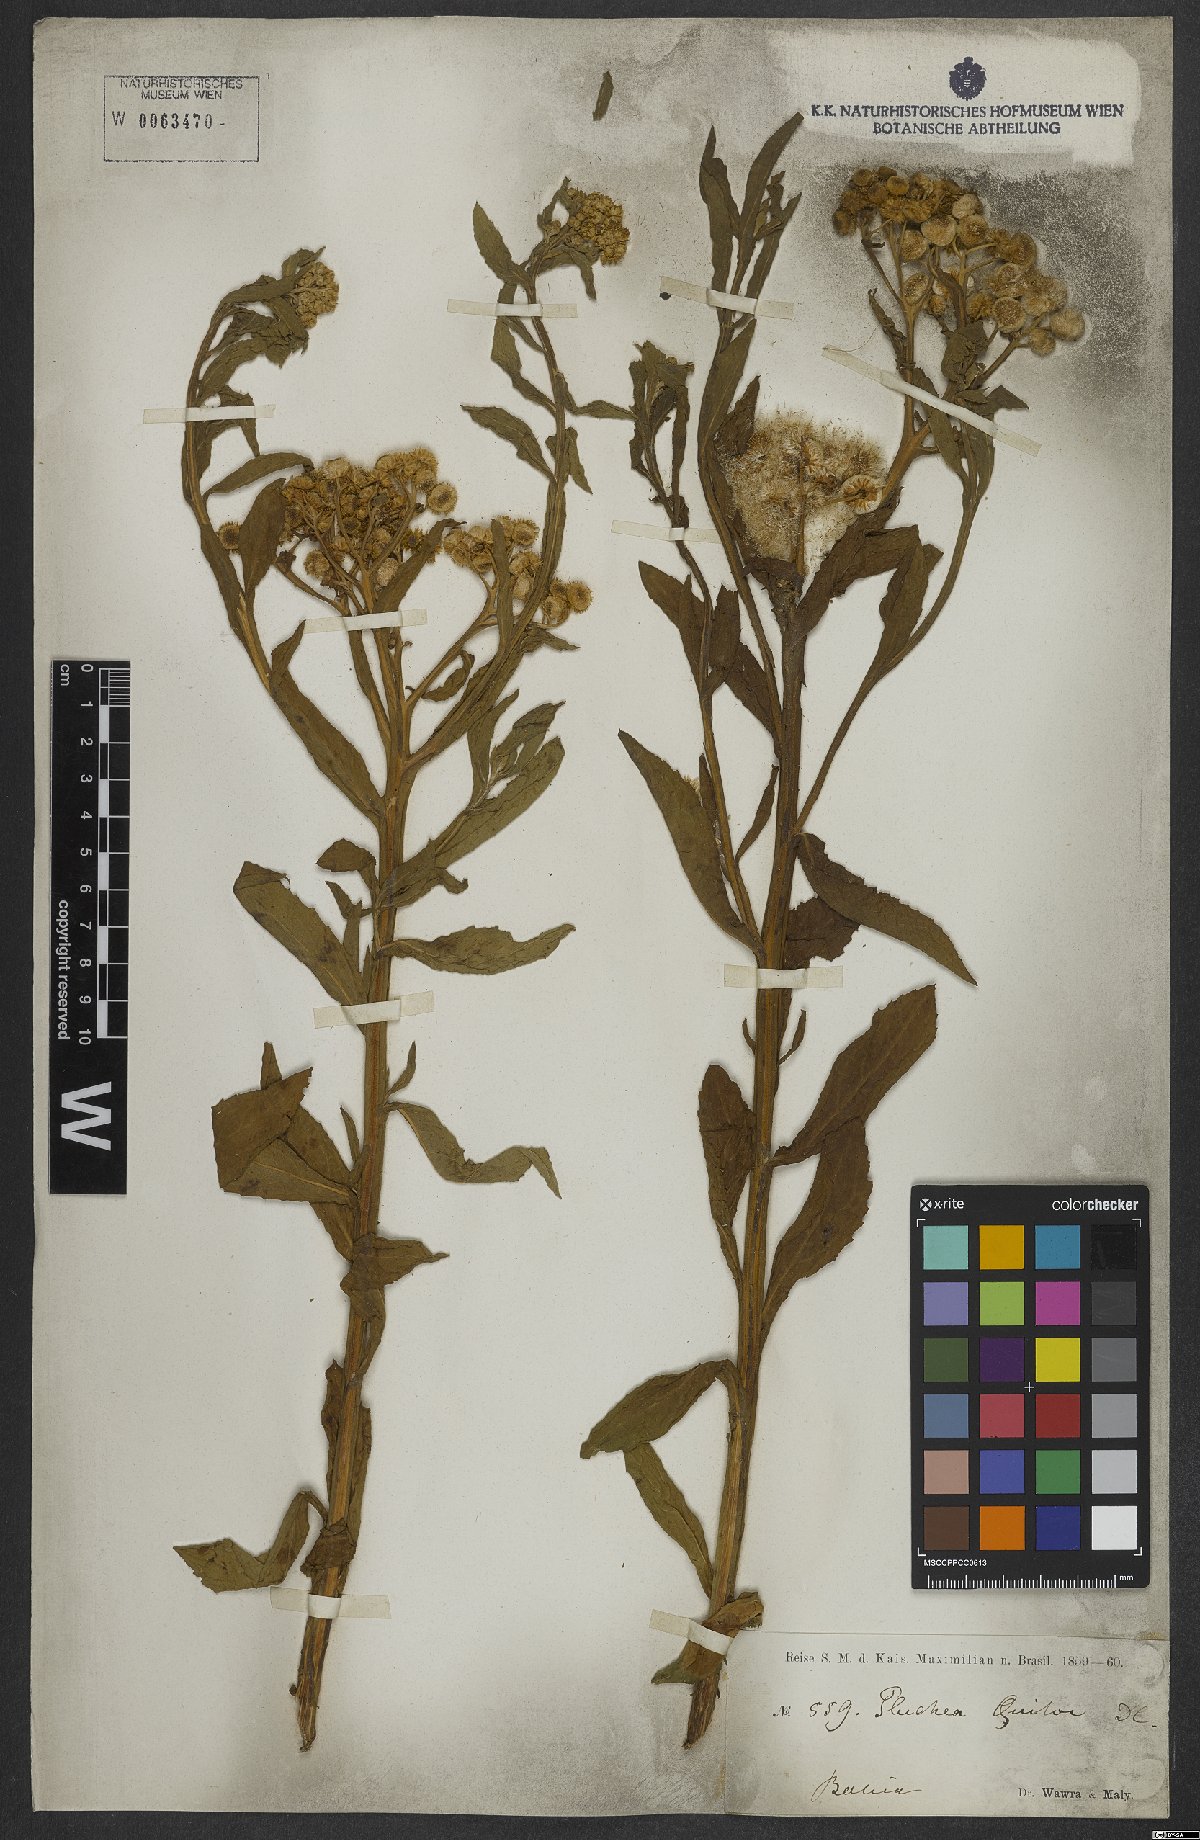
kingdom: Plantae
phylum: Tracheophyta
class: Magnoliopsida
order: Asterales
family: Asteraceae
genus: Pluchea
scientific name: Pluchea sagittalis
